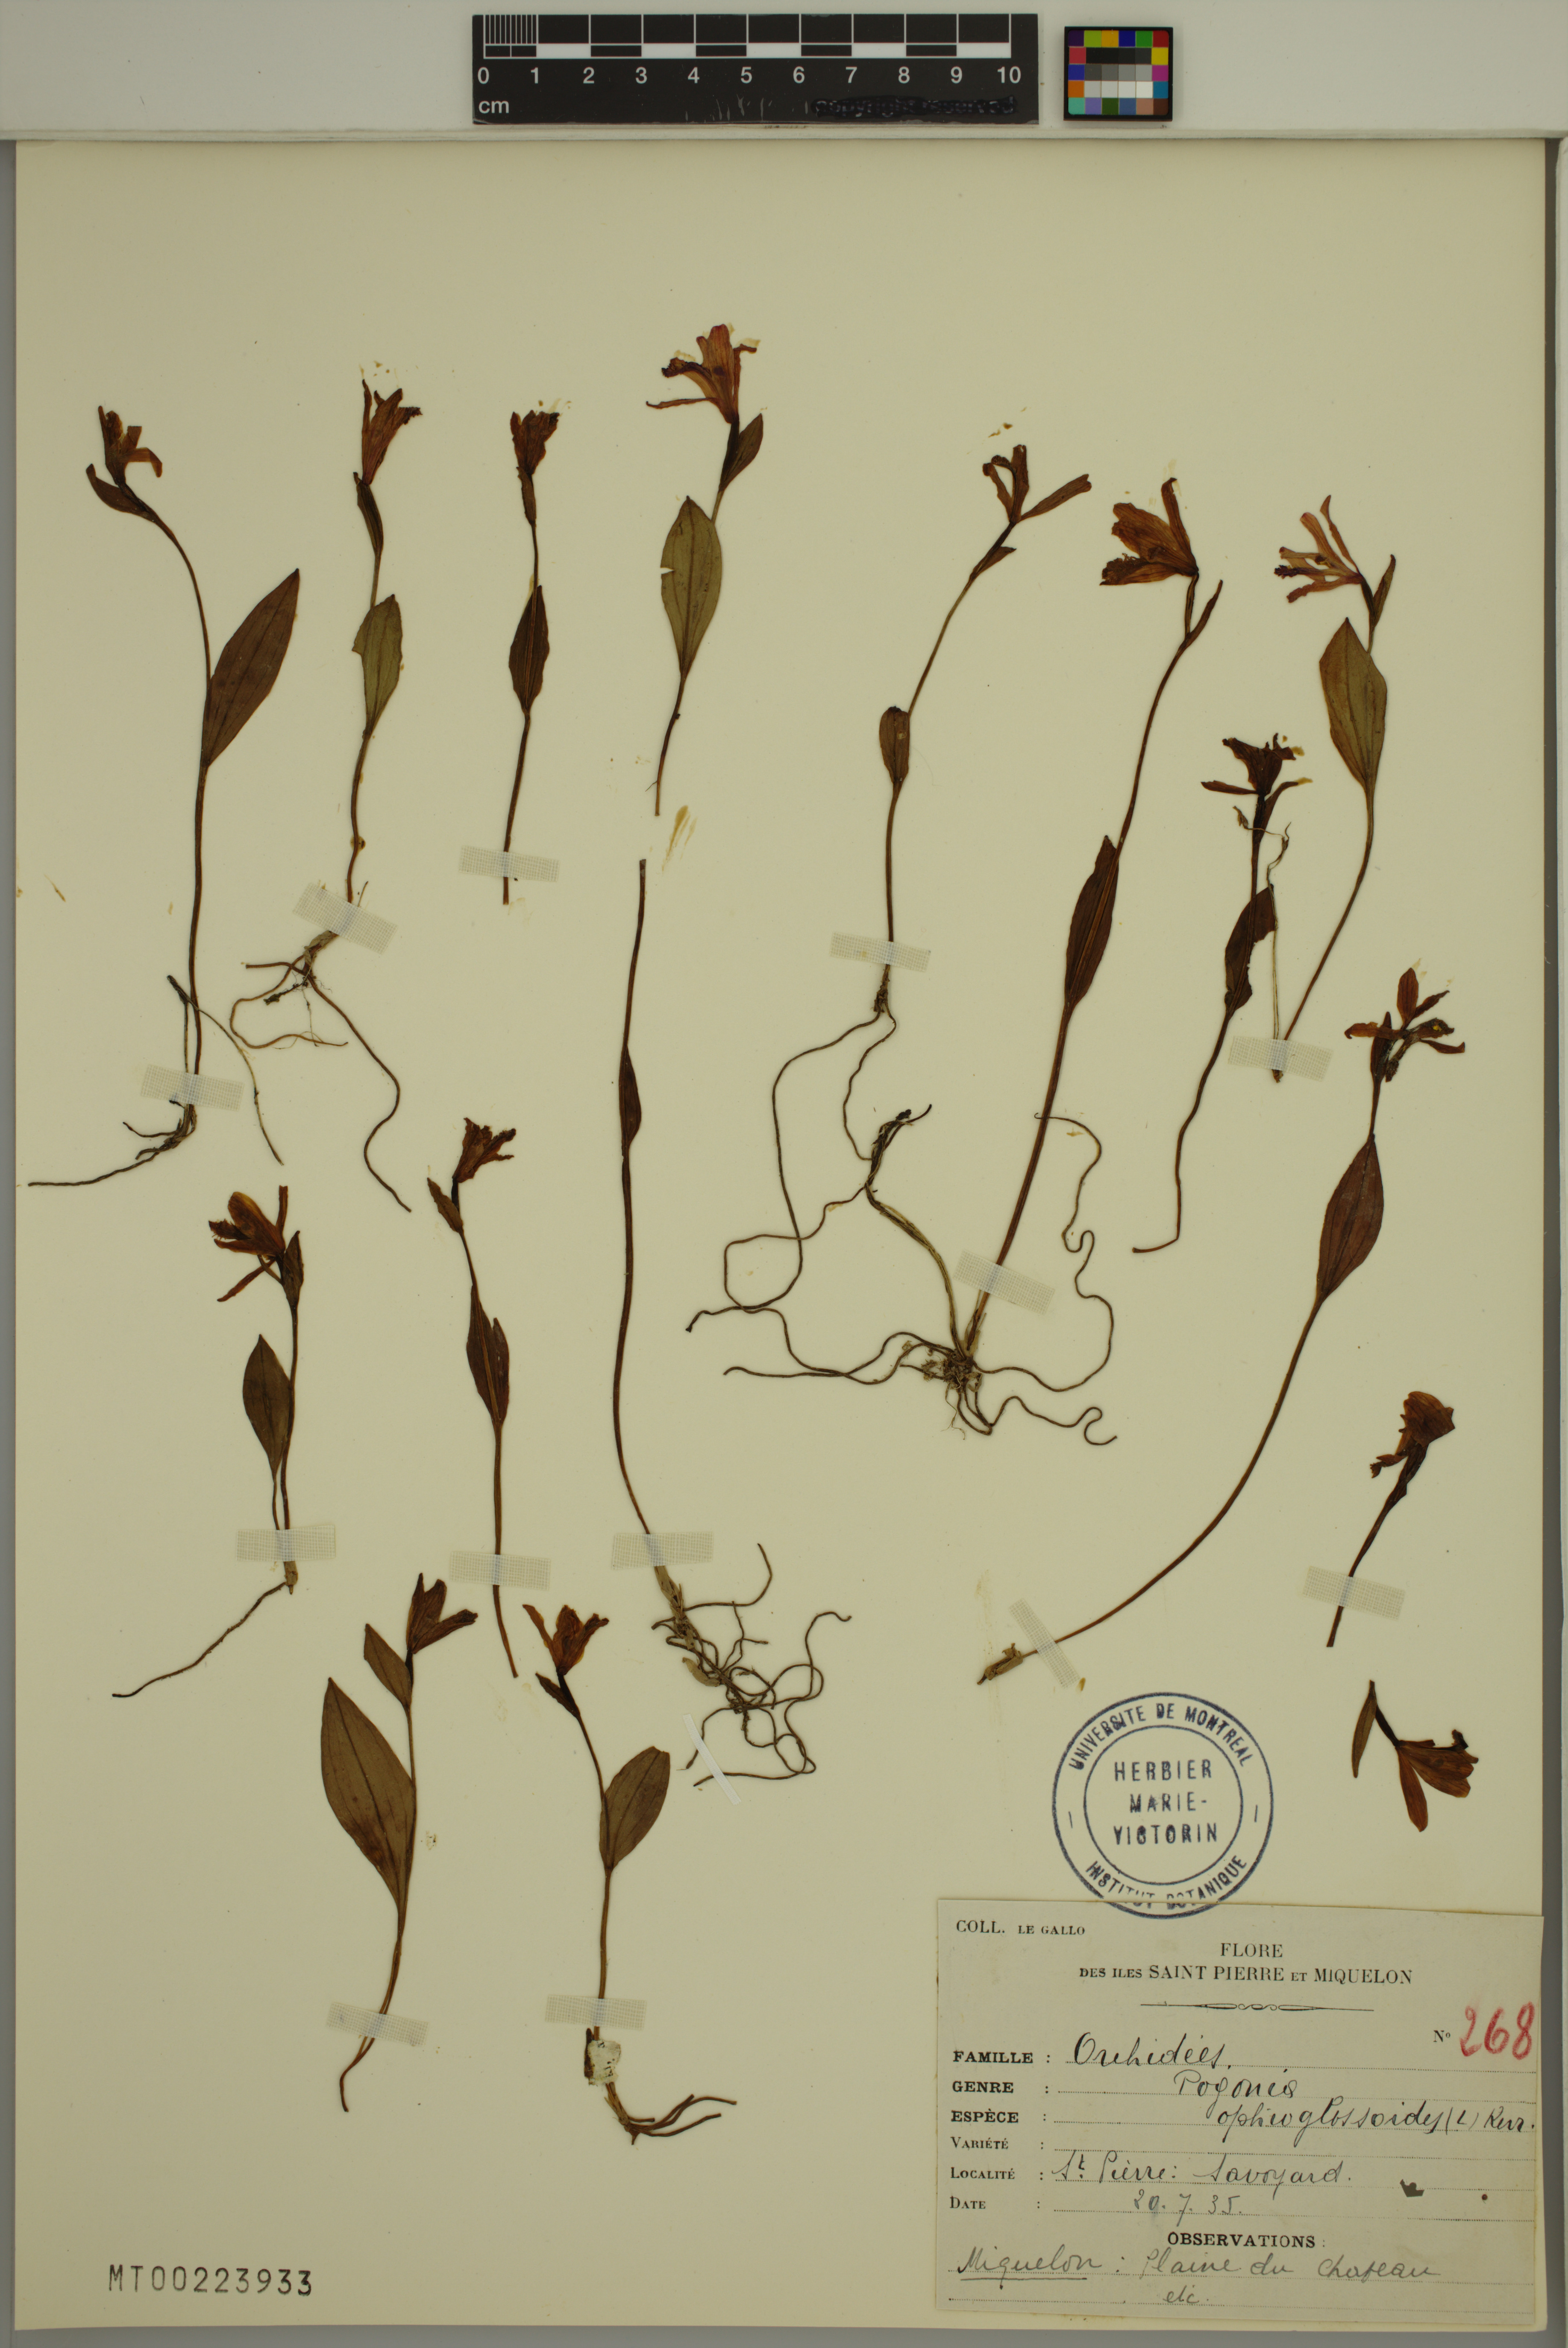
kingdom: Plantae
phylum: Tracheophyta
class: Liliopsida
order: Asparagales
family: Orchidaceae
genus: Pogonia
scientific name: Pogonia ophioglossoides
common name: Rose pogonia
